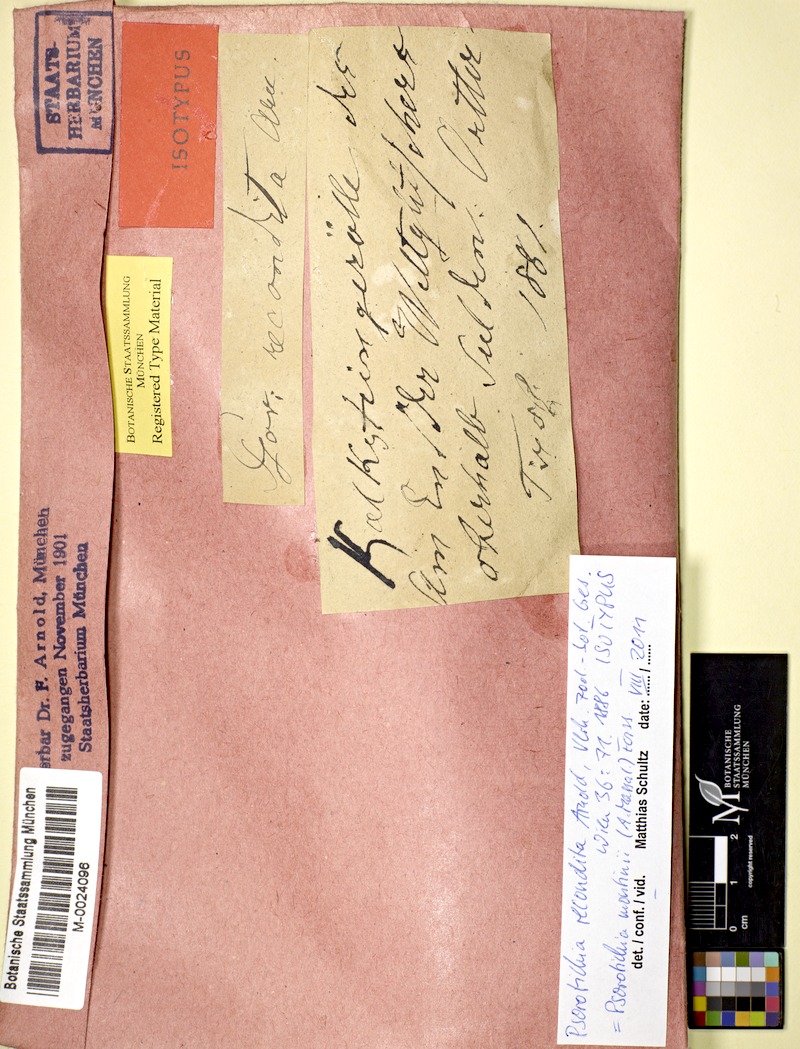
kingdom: Fungi
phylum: Ascomycota
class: Lichinomycetes
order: Lichinales
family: Lichinaceae
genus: Pyrenocarpon
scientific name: Pyrenocarpon Thelochroa montinii
